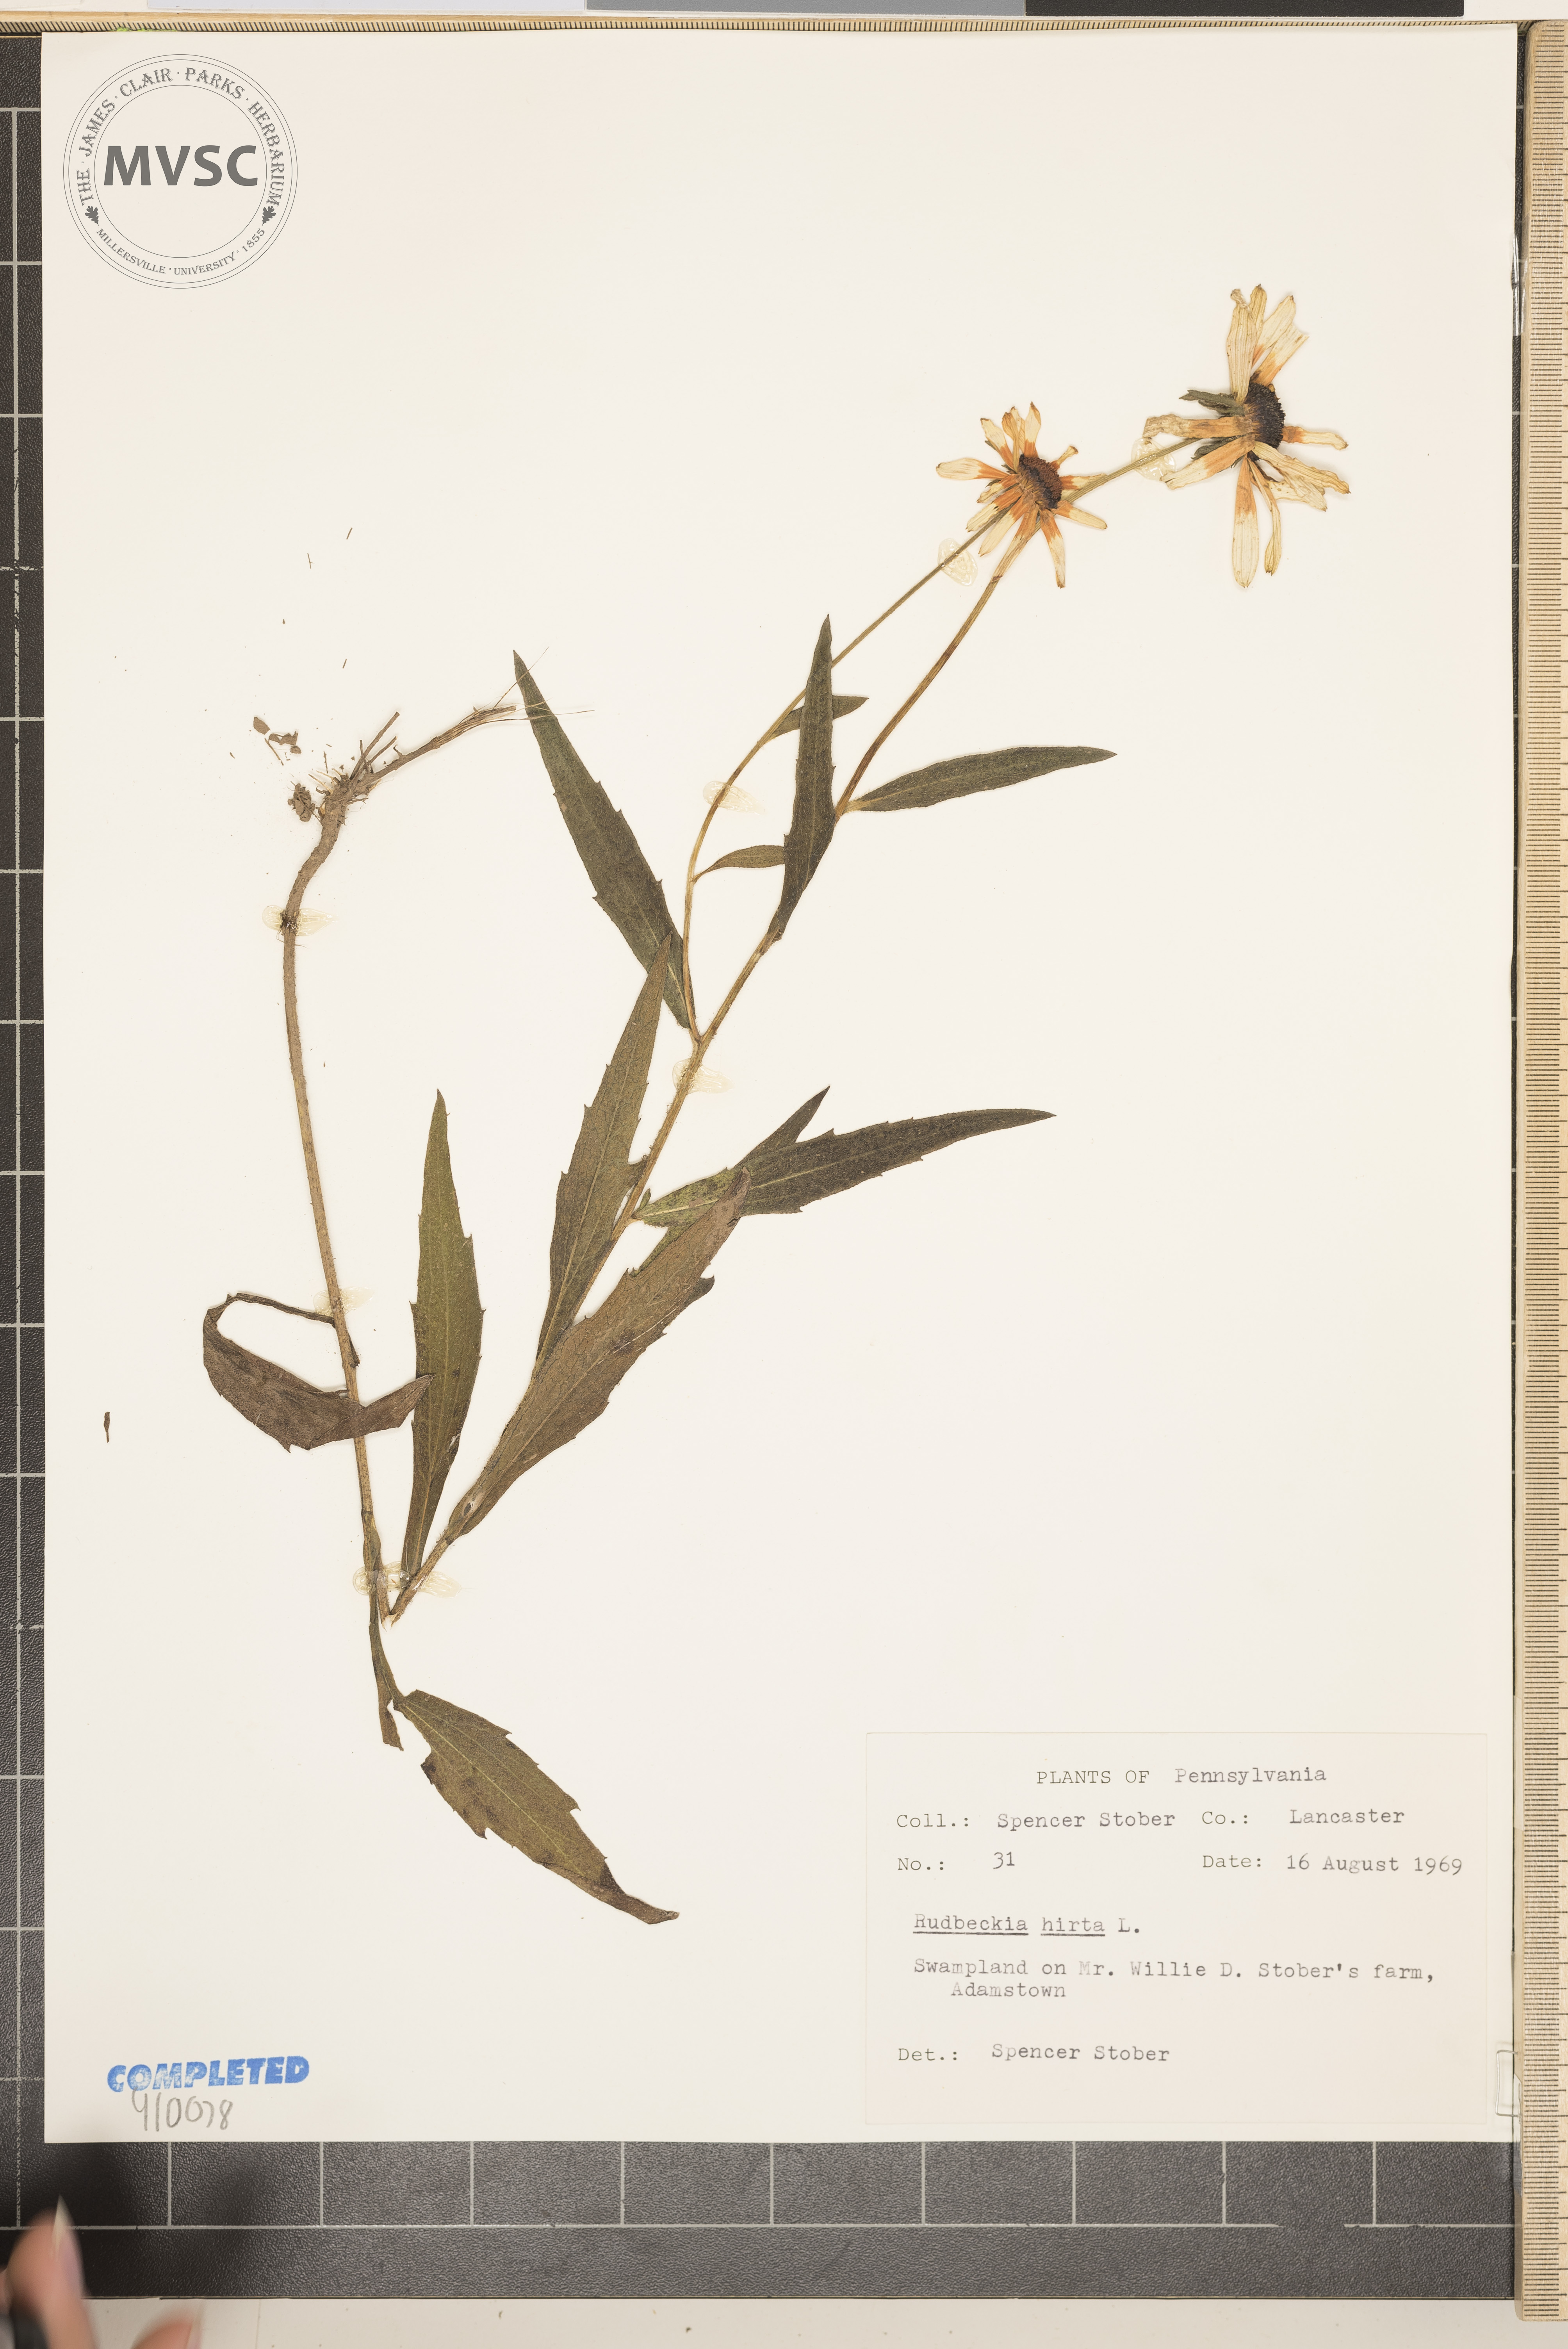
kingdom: Plantae
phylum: Tracheophyta
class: Magnoliopsida
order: Asterales
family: Asteraceae
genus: Rudbeckia
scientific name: Rudbeckia hirta
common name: Black-eyed-susan
